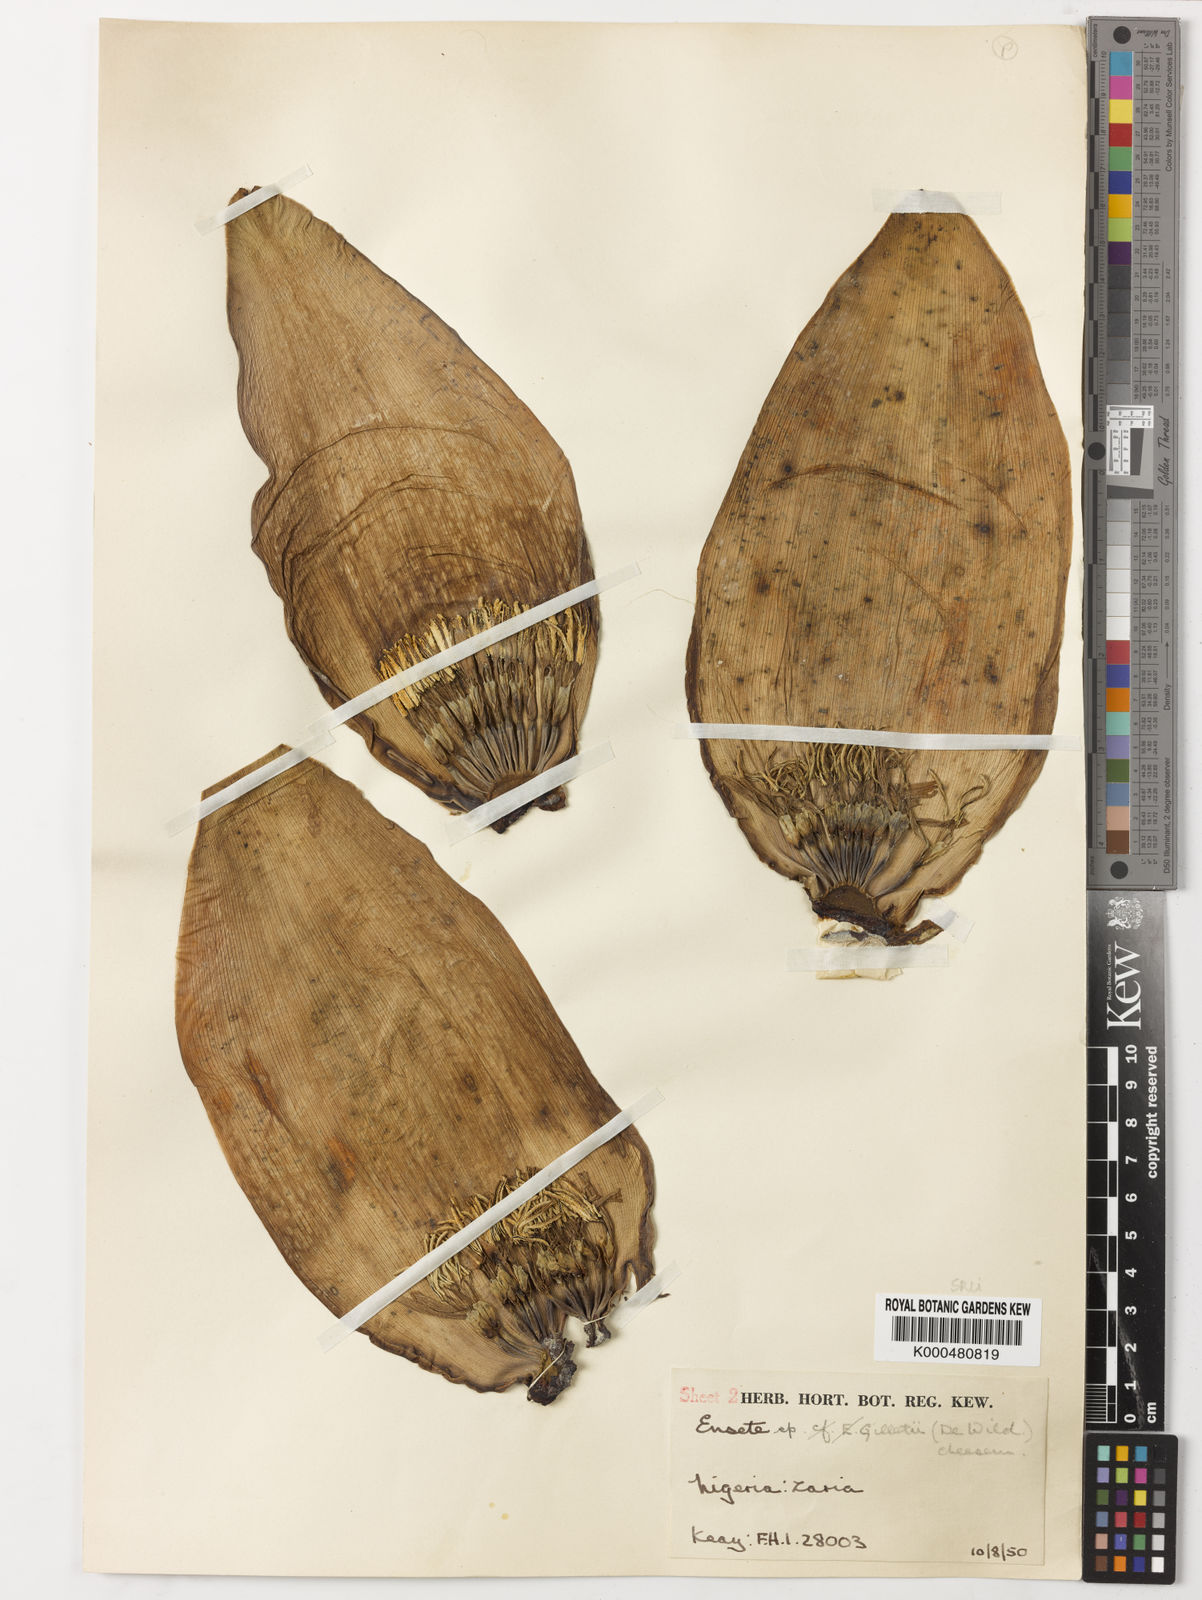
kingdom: Plantae
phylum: Tracheophyta
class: Liliopsida
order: Zingiberales
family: Musaceae
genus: Ensete
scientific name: Ensete livingstonianum
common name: Livingston's banana
